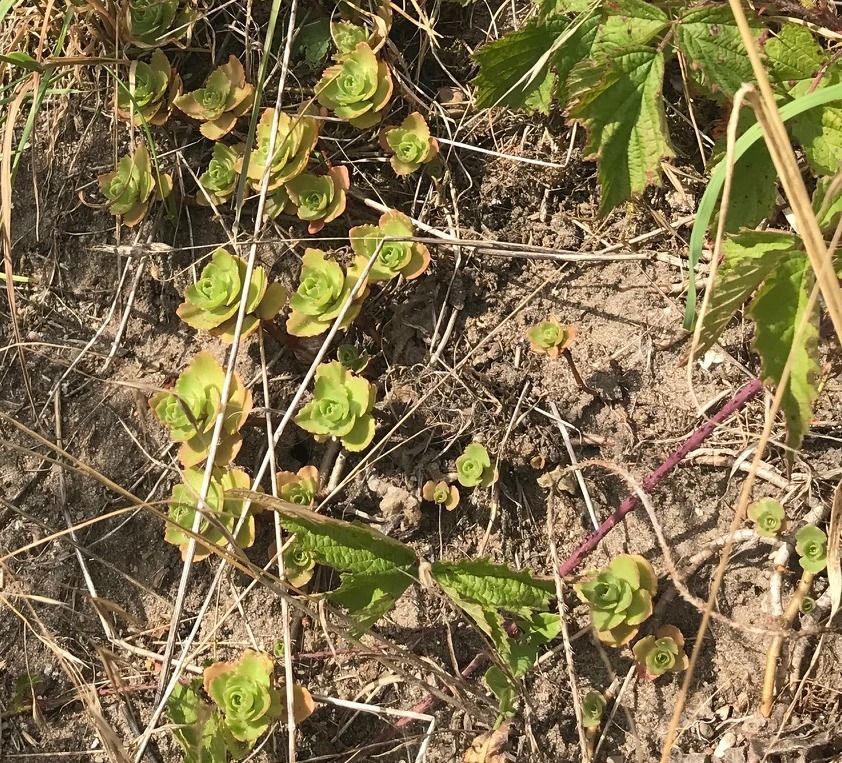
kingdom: Plantae
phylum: Tracheophyta
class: Magnoliopsida
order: Saxifragales
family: Crassulaceae
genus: Phedimus
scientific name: Phedimus spurius
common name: Rød stenurt
